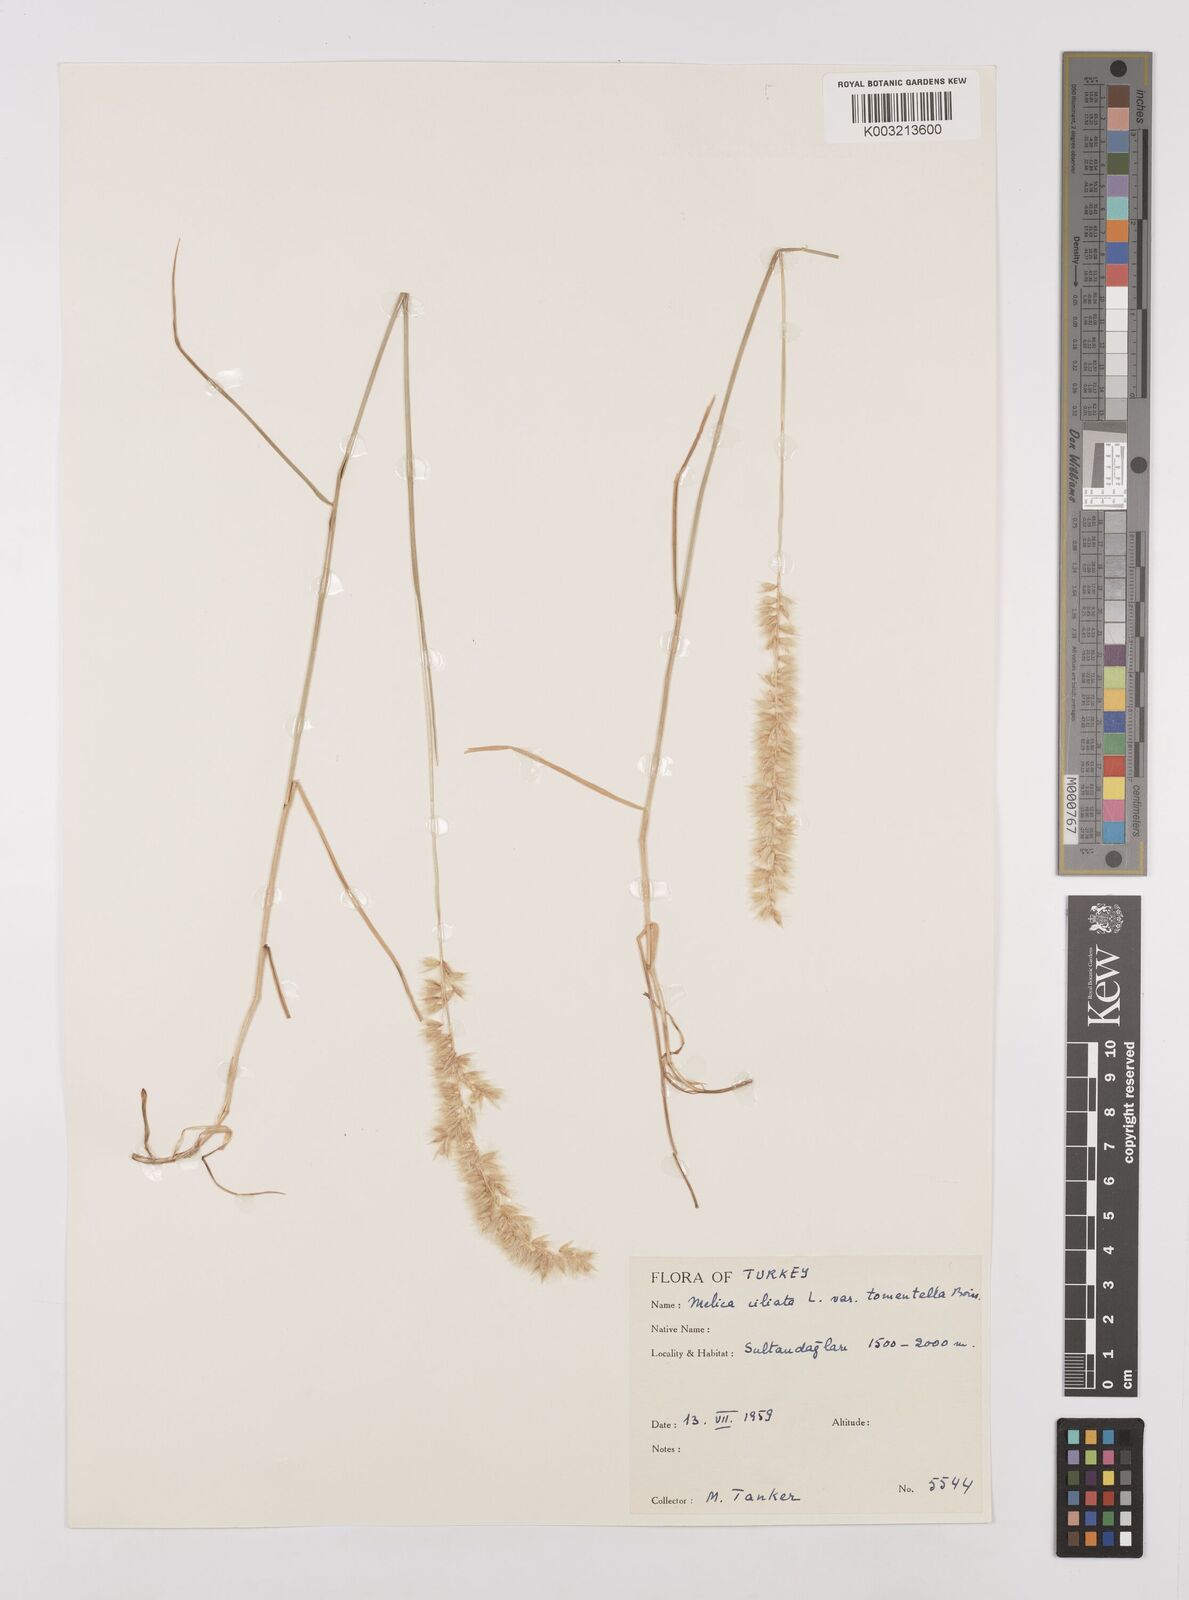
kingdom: Plantae
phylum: Tracheophyta
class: Liliopsida
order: Poales
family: Poaceae
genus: Melica
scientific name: Melica ciliata
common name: Hairy melicgrass
